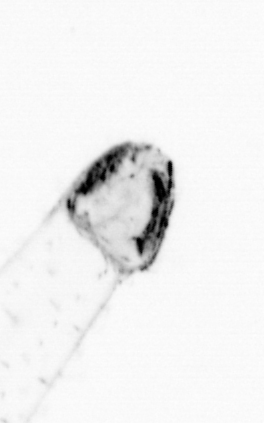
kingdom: Animalia
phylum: Chaetognatha
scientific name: Chaetognatha
